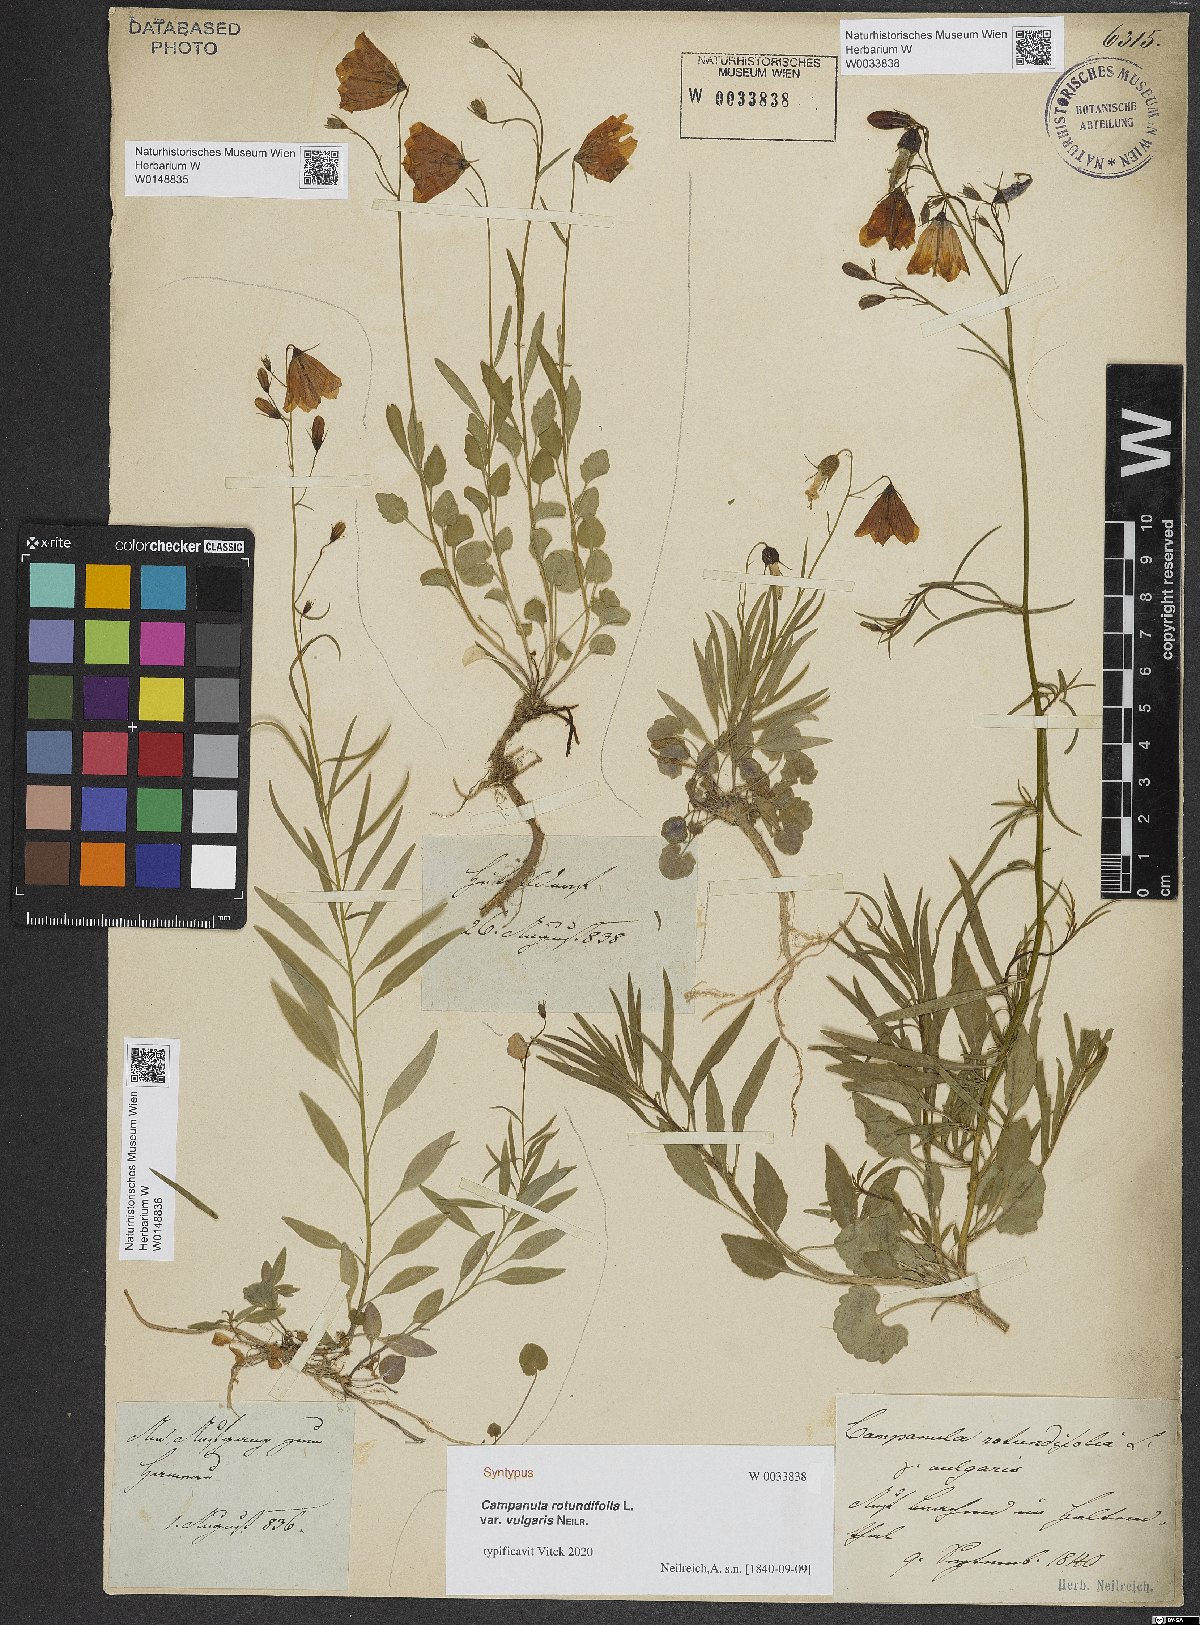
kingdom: Plantae
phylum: Tracheophyta
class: Magnoliopsida
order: Asterales
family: Campanulaceae
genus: Campanula
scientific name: Campanula rotundifolia
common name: Harebell
